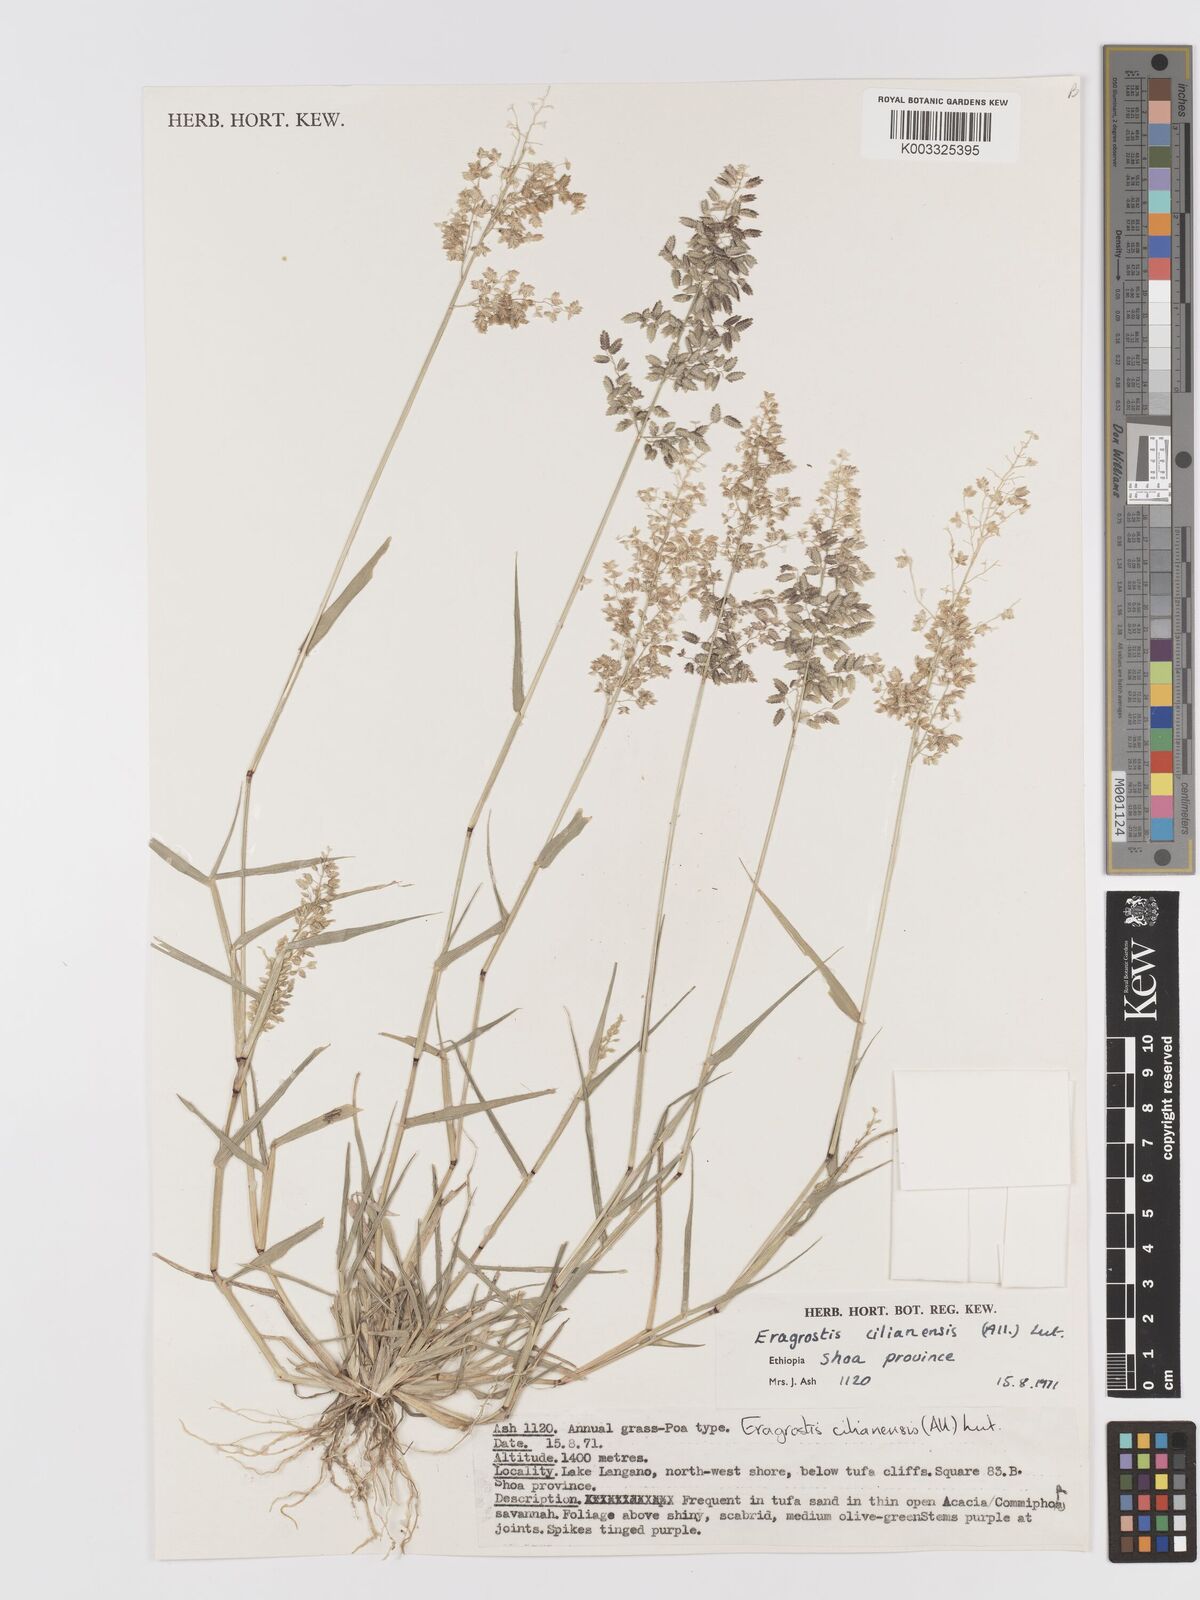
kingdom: Plantae
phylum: Tracheophyta
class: Liliopsida
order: Poales
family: Poaceae
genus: Eragrostis
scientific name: Eragrostis cilianensis
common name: Stinkgrass
